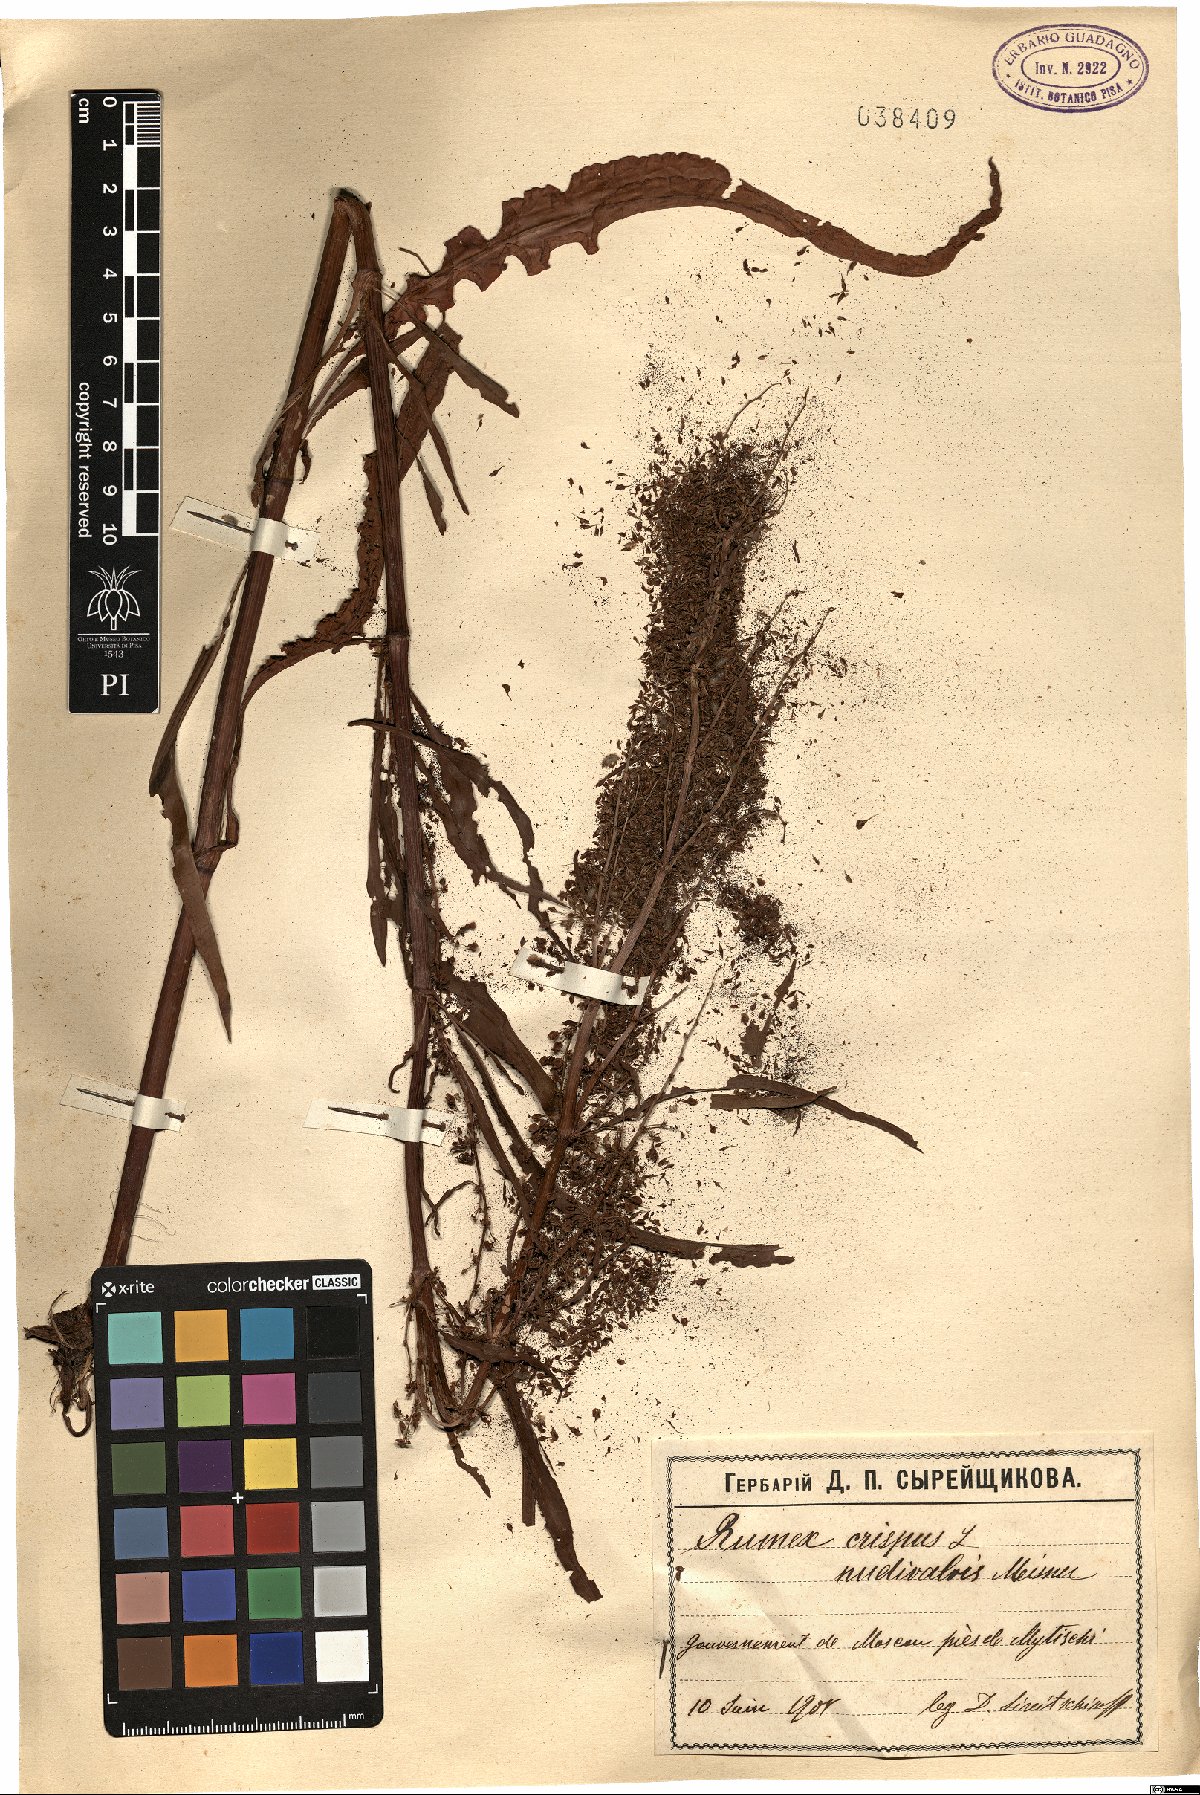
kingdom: Plantae
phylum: Tracheophyta
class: Magnoliopsida
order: Caryophyllales
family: Polygonaceae
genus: Rumex
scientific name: Rumex crispus
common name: Curled dock
